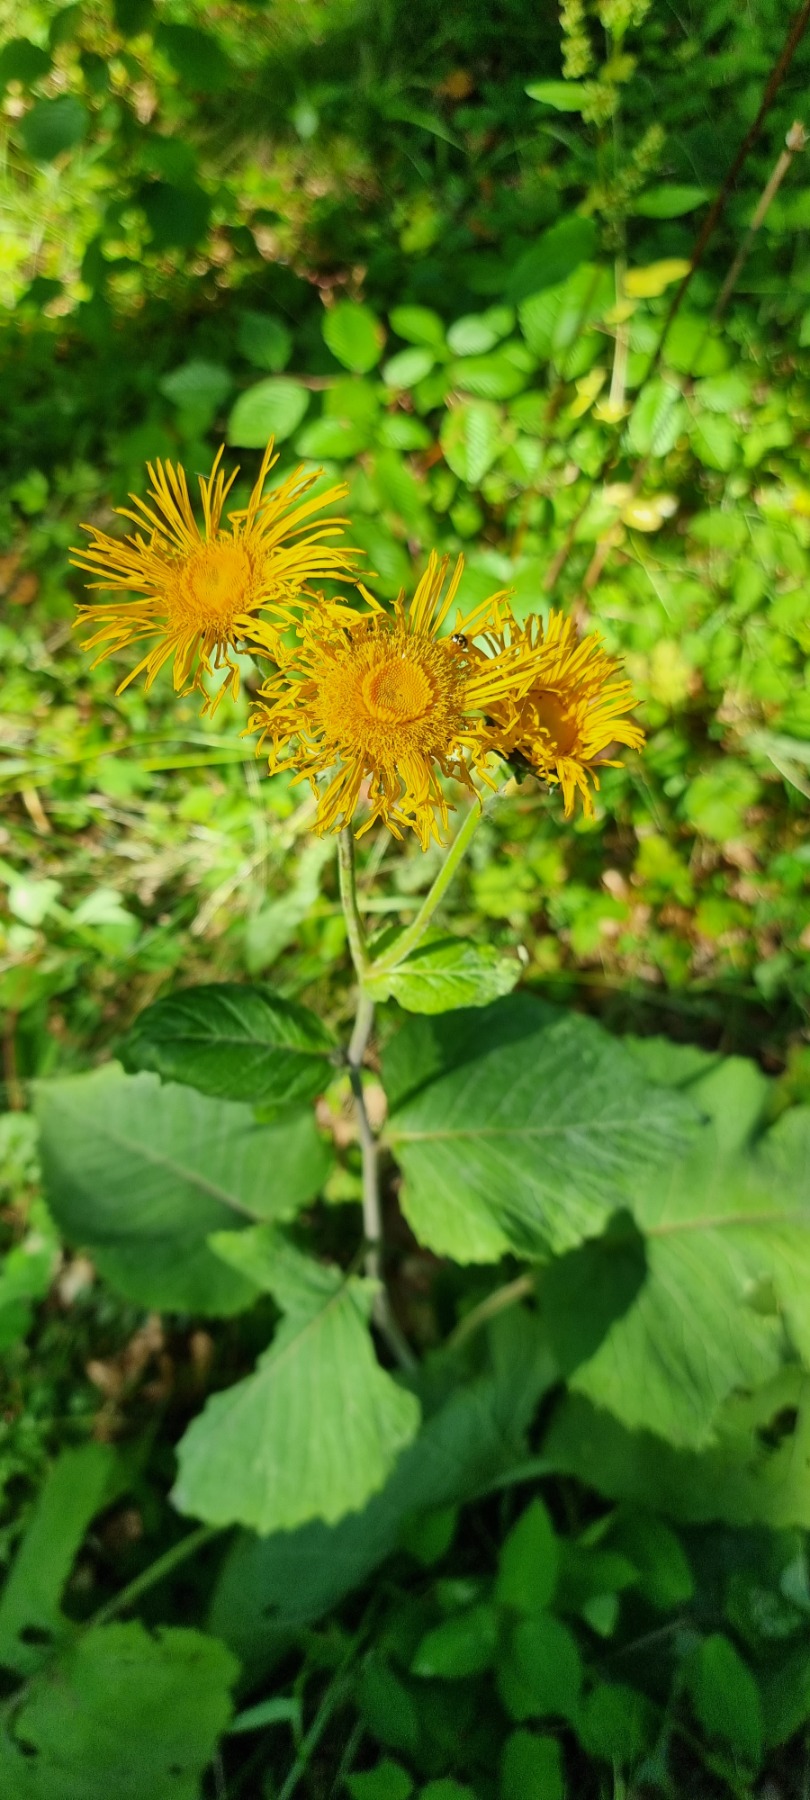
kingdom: Plantae
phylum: Tracheophyta
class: Magnoliopsida
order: Asterales
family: Asteraceae
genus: Telekia
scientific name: Telekia speciosa
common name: Tusindstråle
